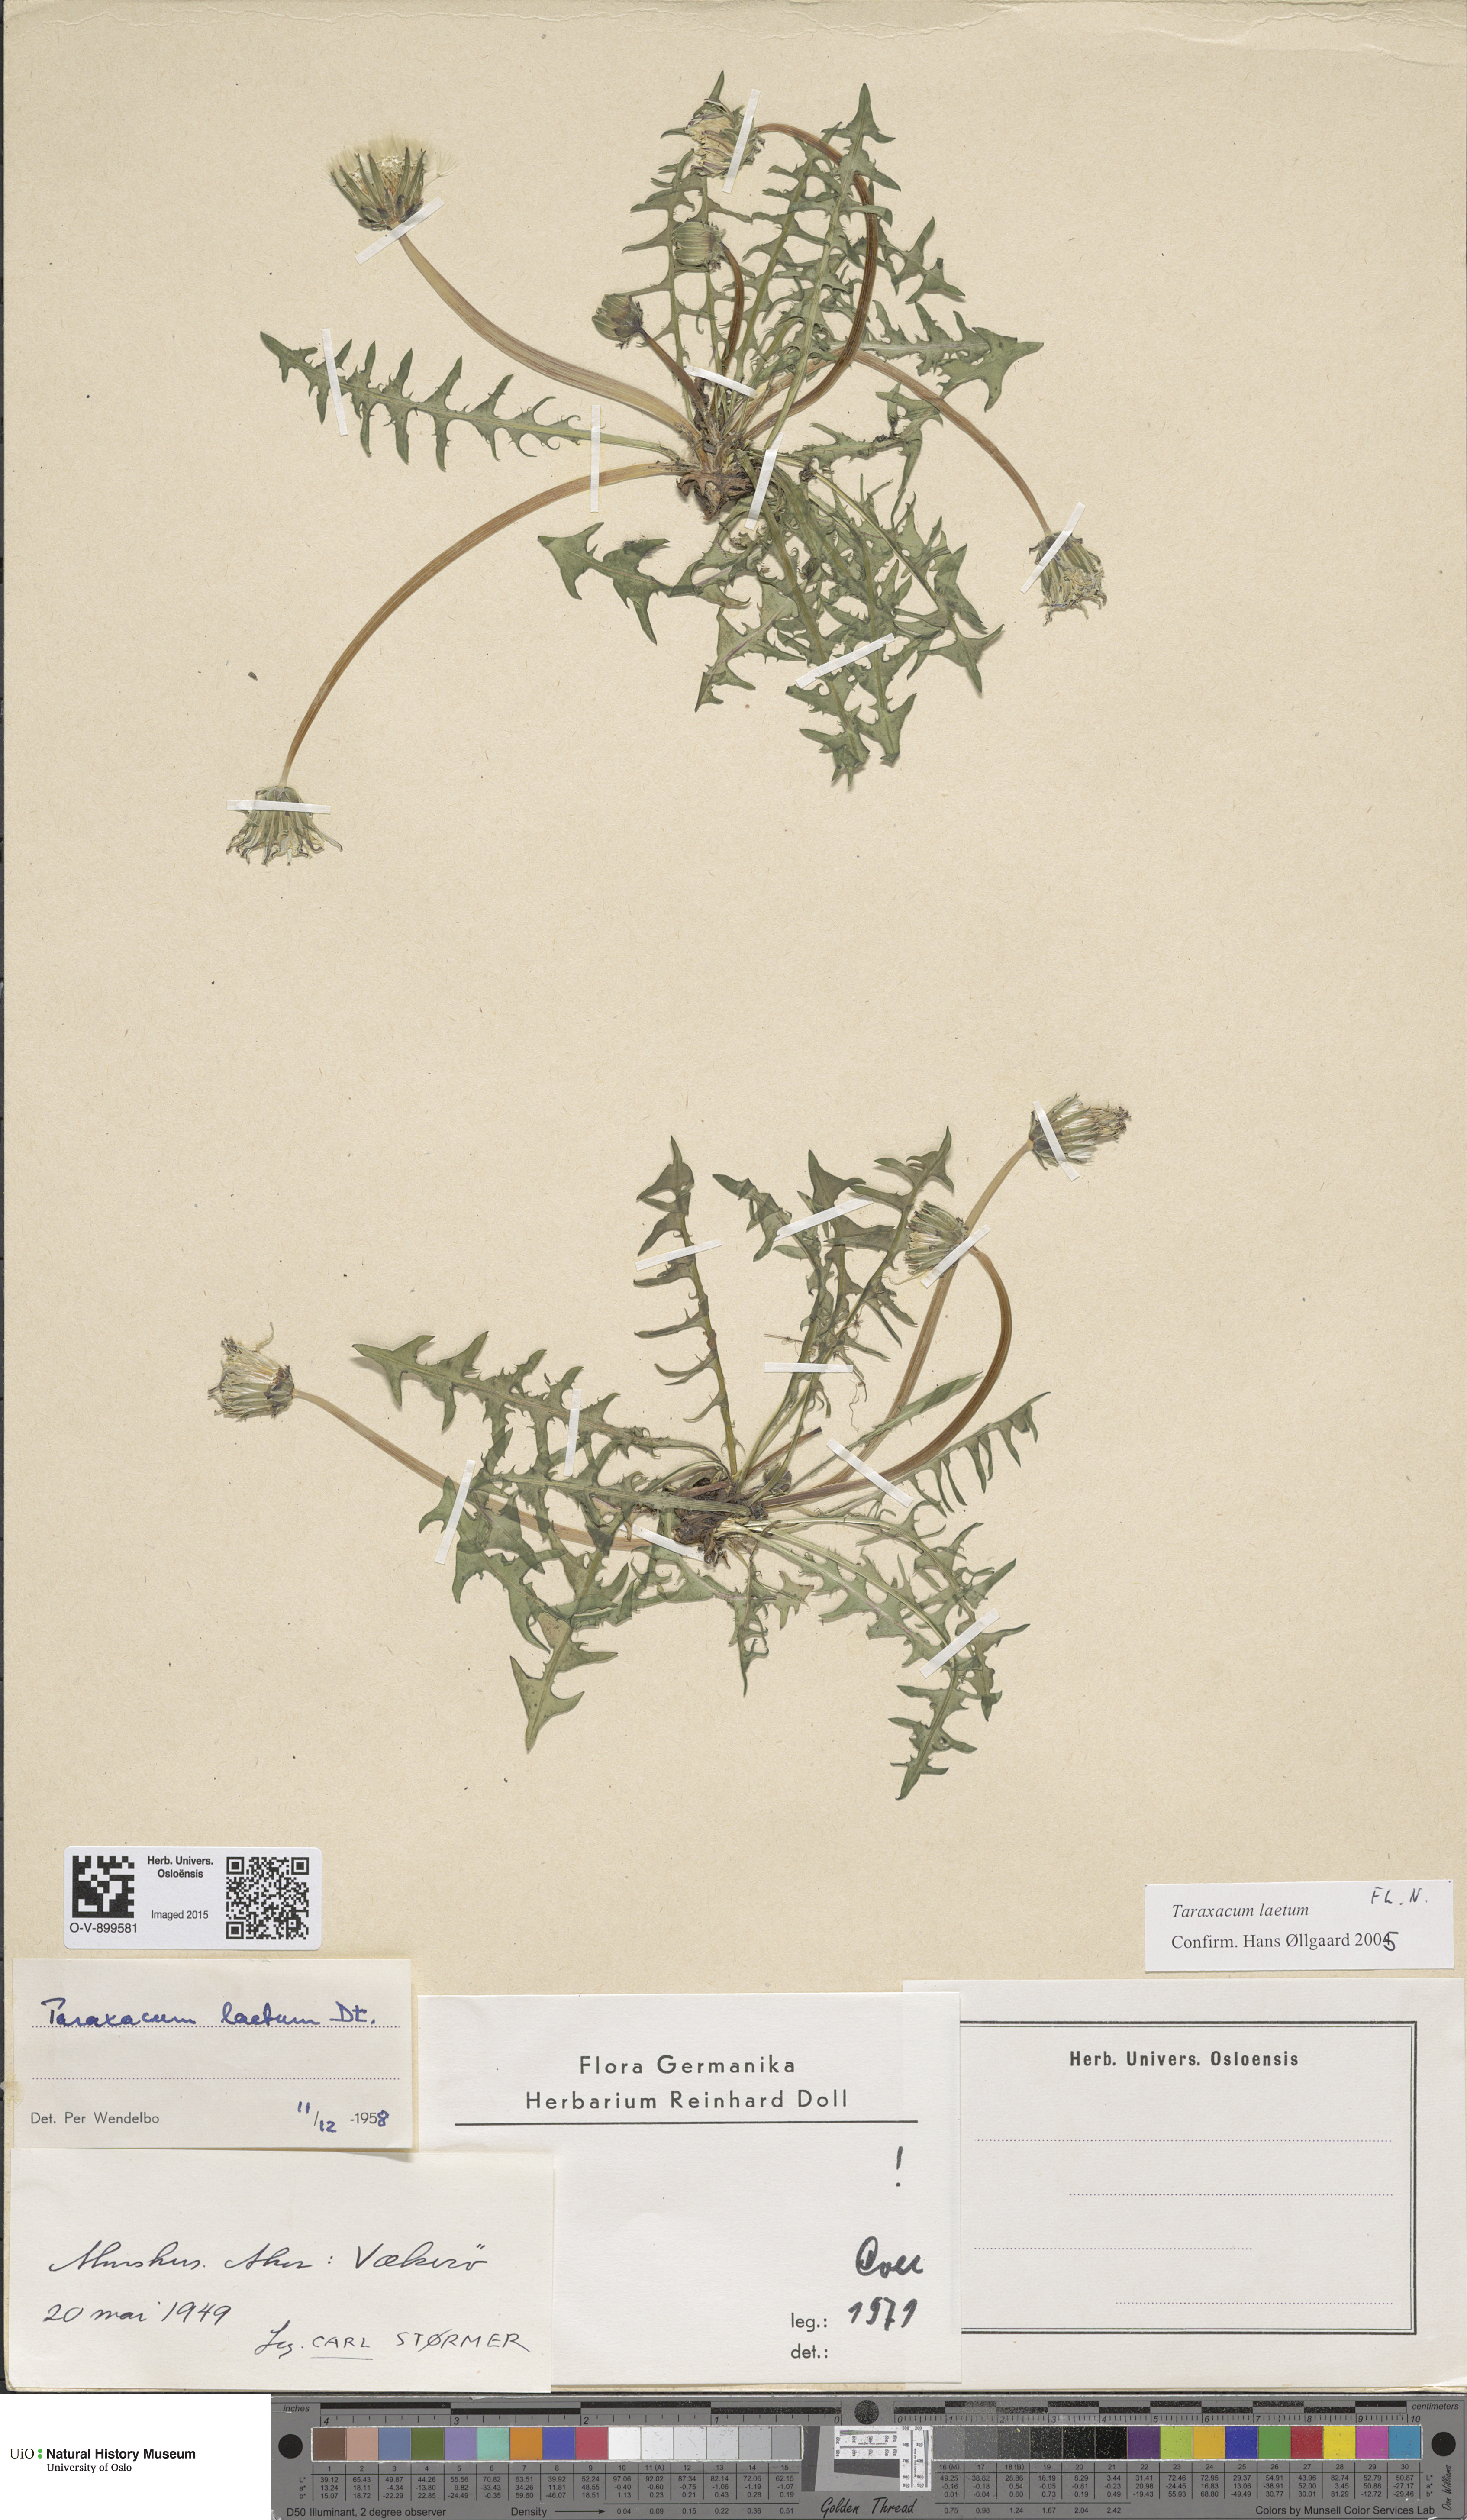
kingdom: Plantae
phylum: Tracheophyta
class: Magnoliopsida
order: Asterales
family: Asteraceae
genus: Taraxacum
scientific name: Taraxacum laetum
